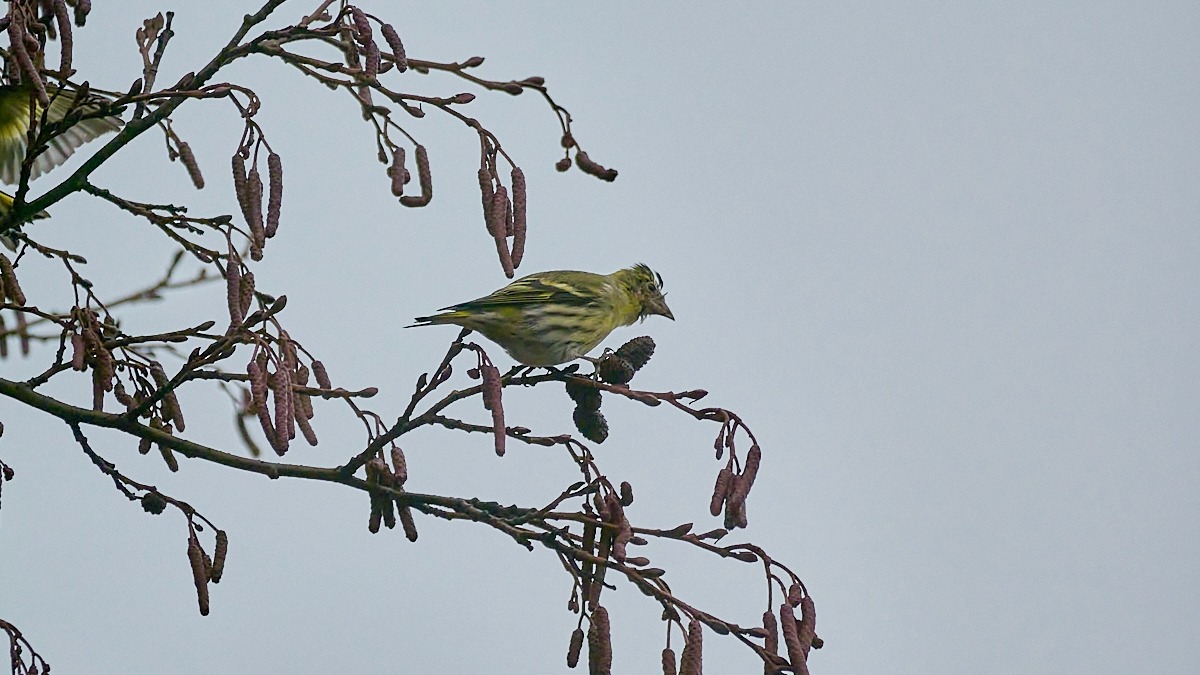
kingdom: Animalia
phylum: Chordata
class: Aves
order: Passeriformes
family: Fringillidae
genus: Spinus
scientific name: Spinus spinus
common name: Grønsisken
